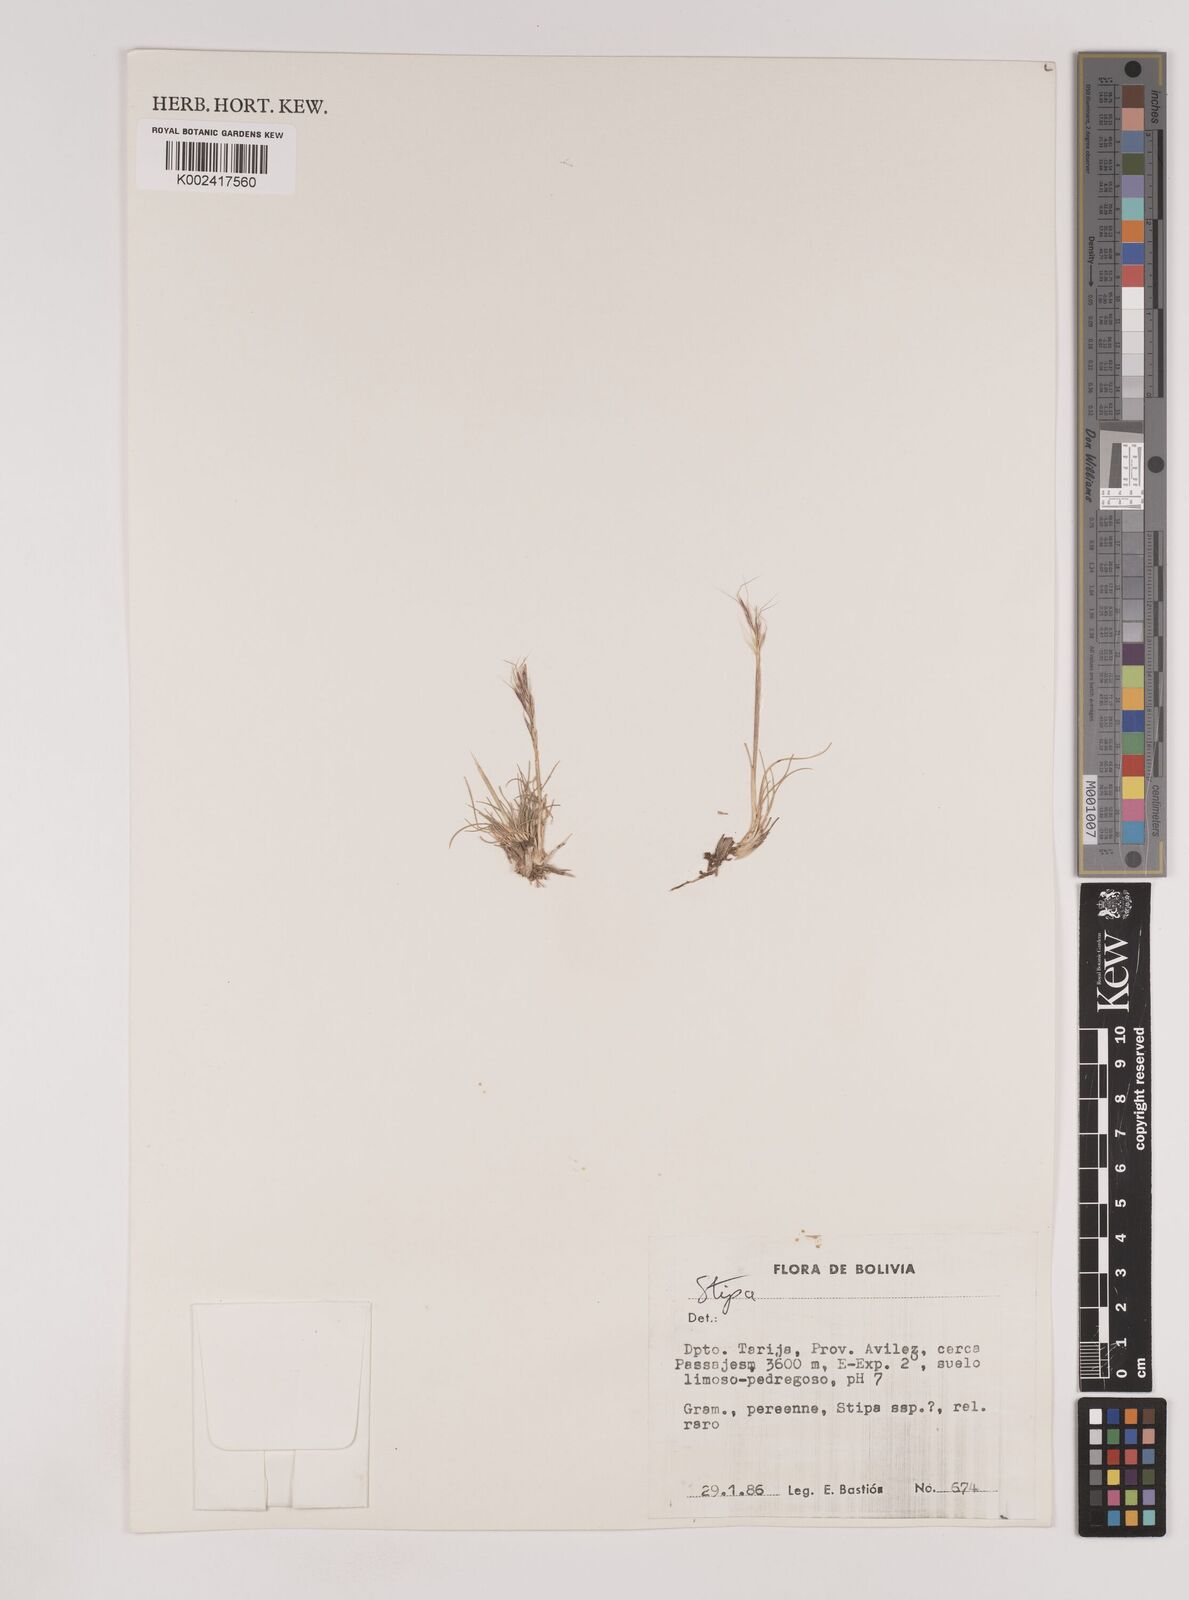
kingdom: Plantae
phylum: Tracheophyta
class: Liliopsida
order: Poales
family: Poaceae
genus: Nassella
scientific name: Nassella rupestris
